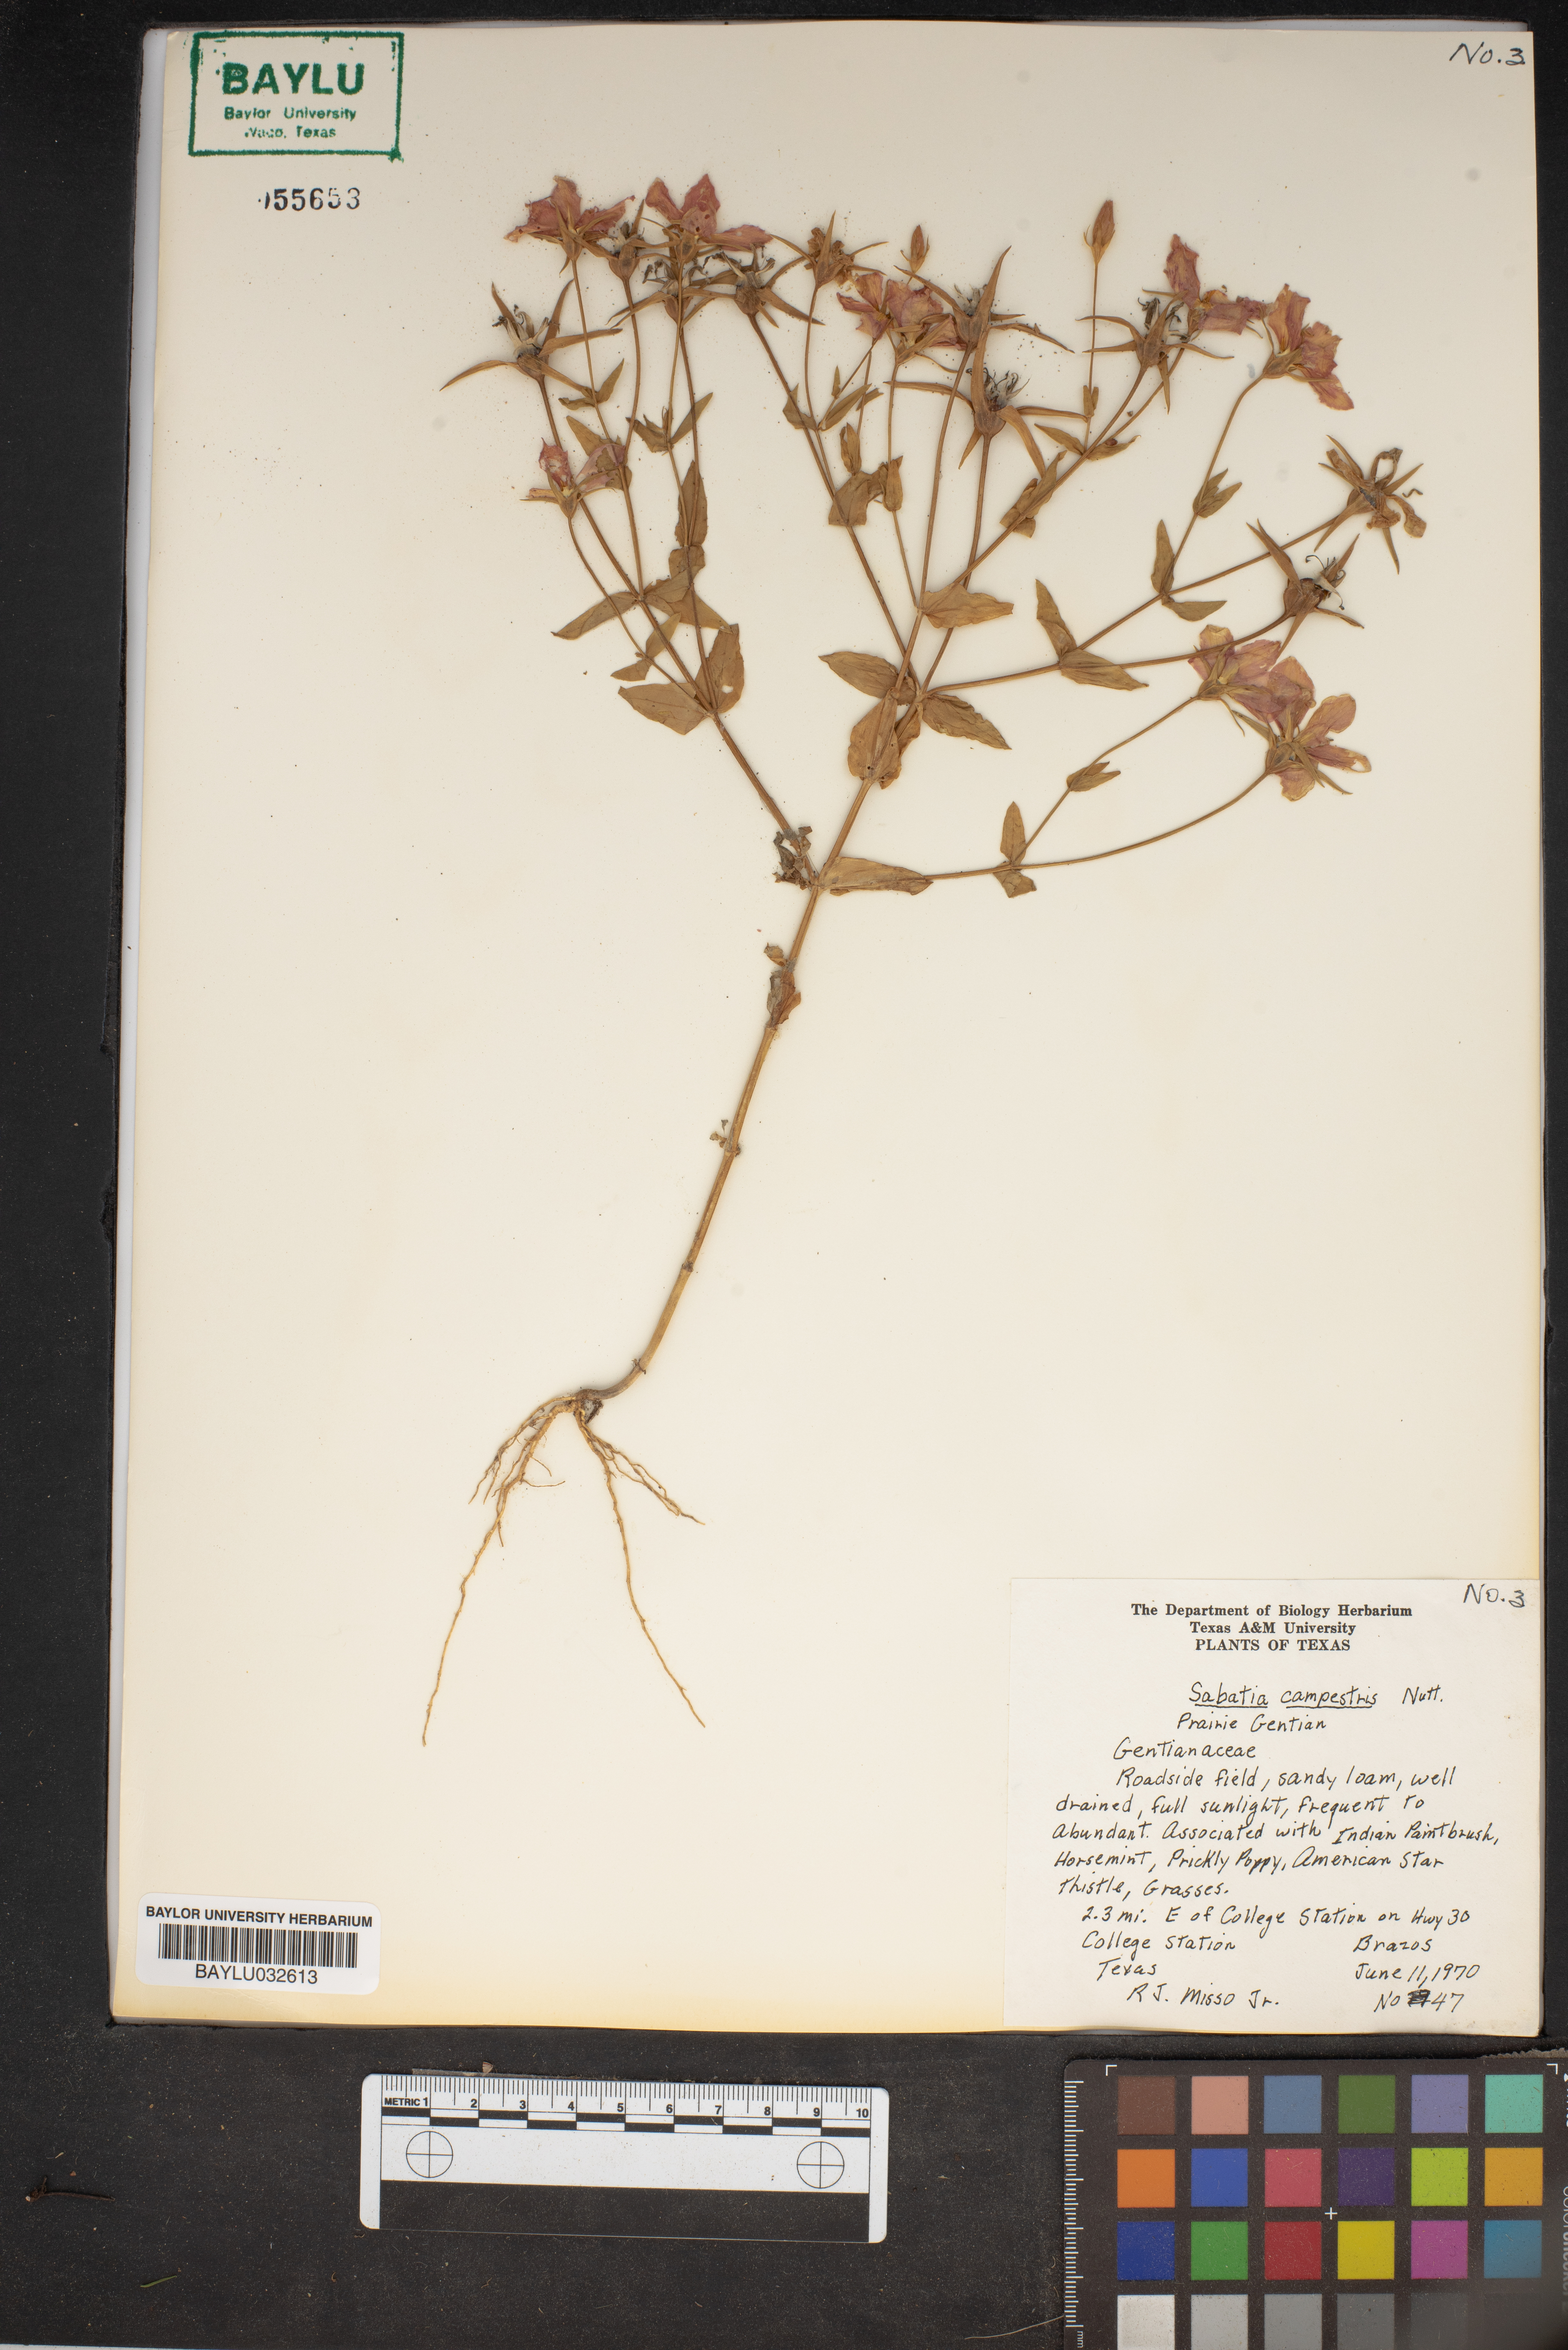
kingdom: Plantae
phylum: Tracheophyta
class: Magnoliopsida
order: Gentianales
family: Gentianaceae
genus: Sabatia
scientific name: Sabatia campestris
